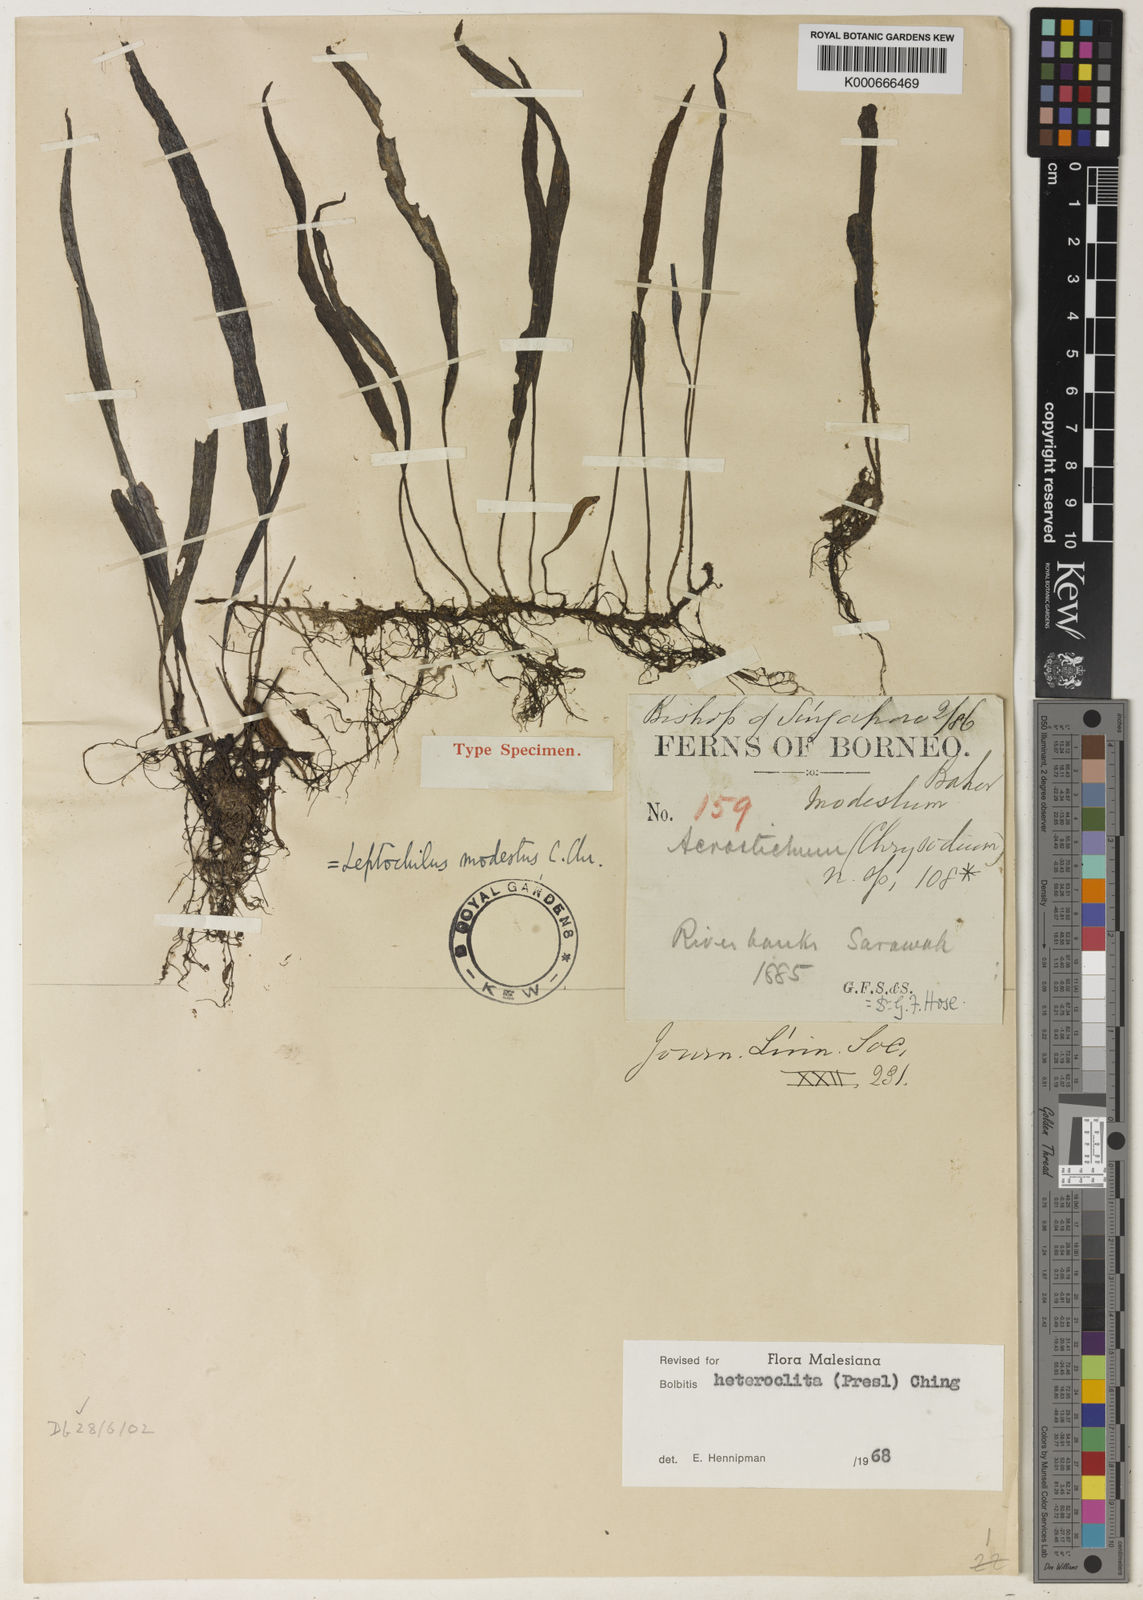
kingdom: Plantae
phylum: Tracheophyta
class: Polypodiopsida
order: Polypodiales
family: Dryopteridaceae
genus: Bolbitis
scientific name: Bolbitis heteroclita
